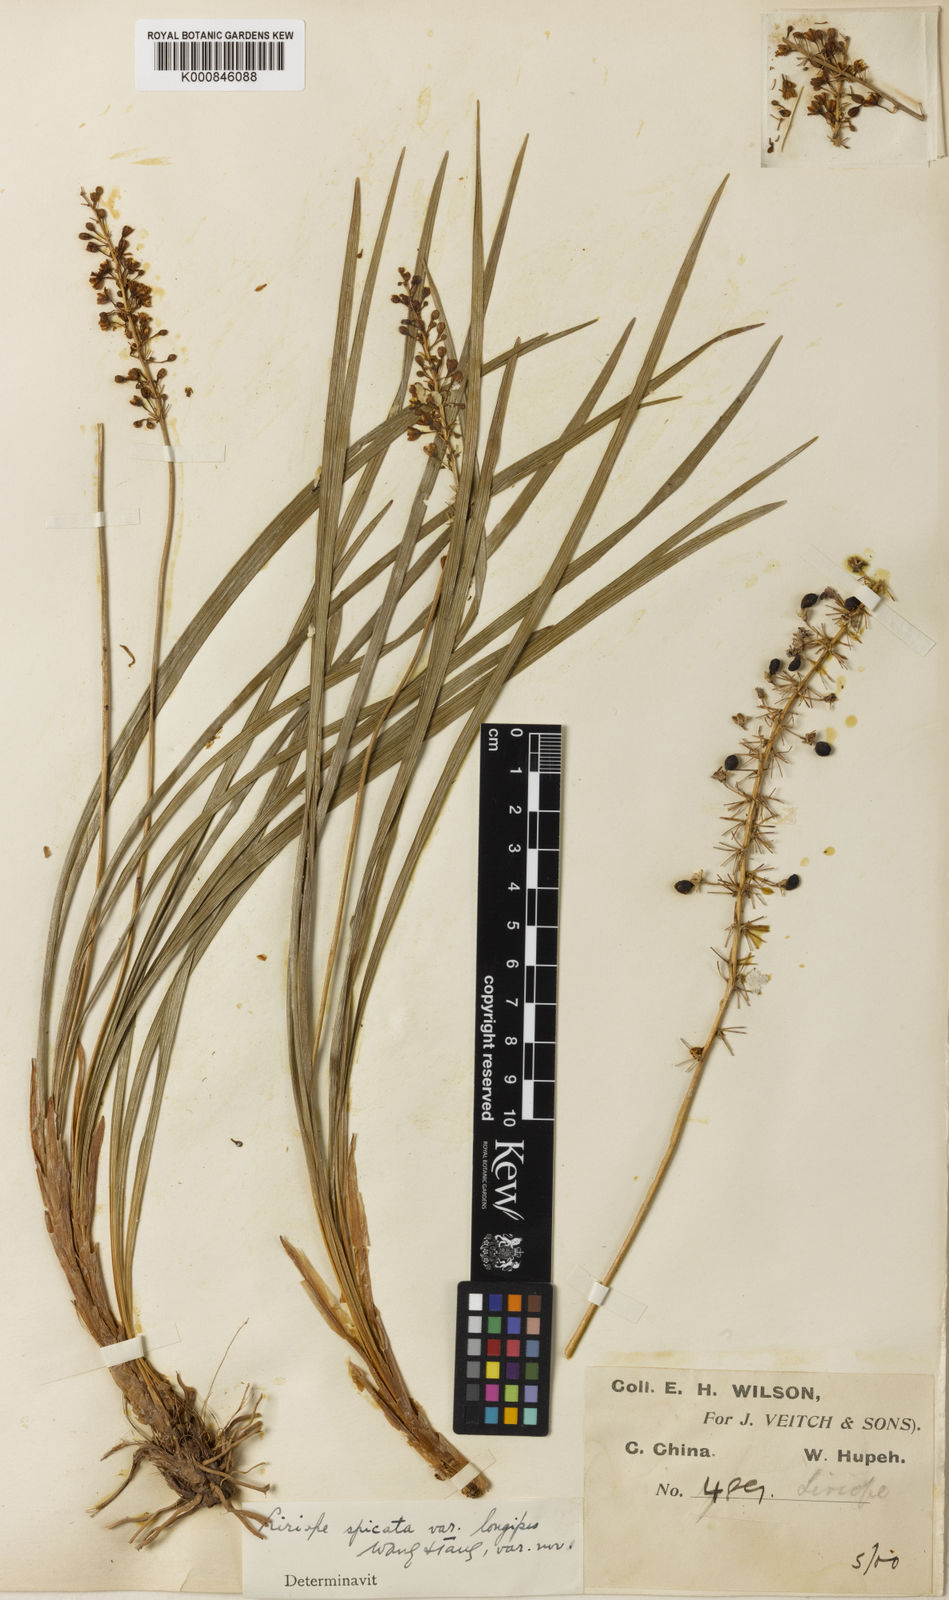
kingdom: Plantae
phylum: Tracheophyta
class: Liliopsida
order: Asparagales
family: Asparagaceae
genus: Liriope
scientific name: Liriope spicata
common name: Creeping liriope
